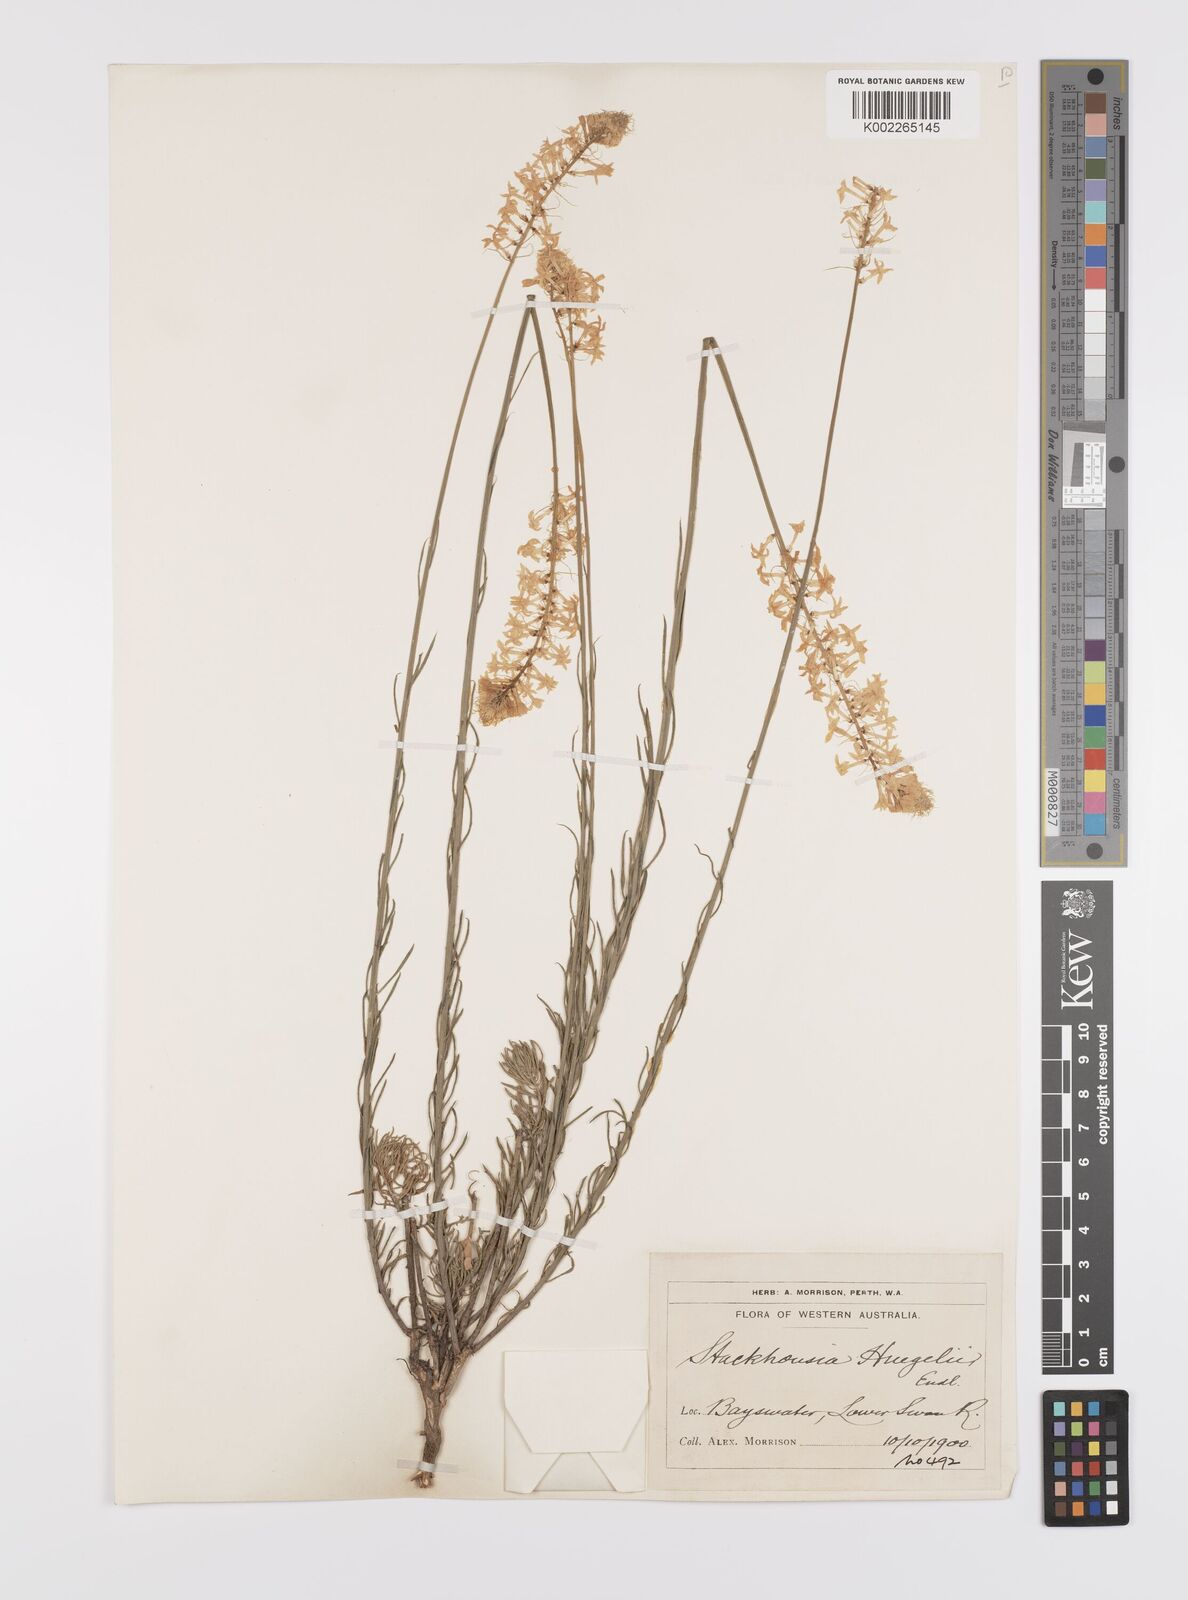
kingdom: Plantae
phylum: Tracheophyta
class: Magnoliopsida
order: Celastrales
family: Celastraceae
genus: Stackhousia
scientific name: Stackhousia monogyna
